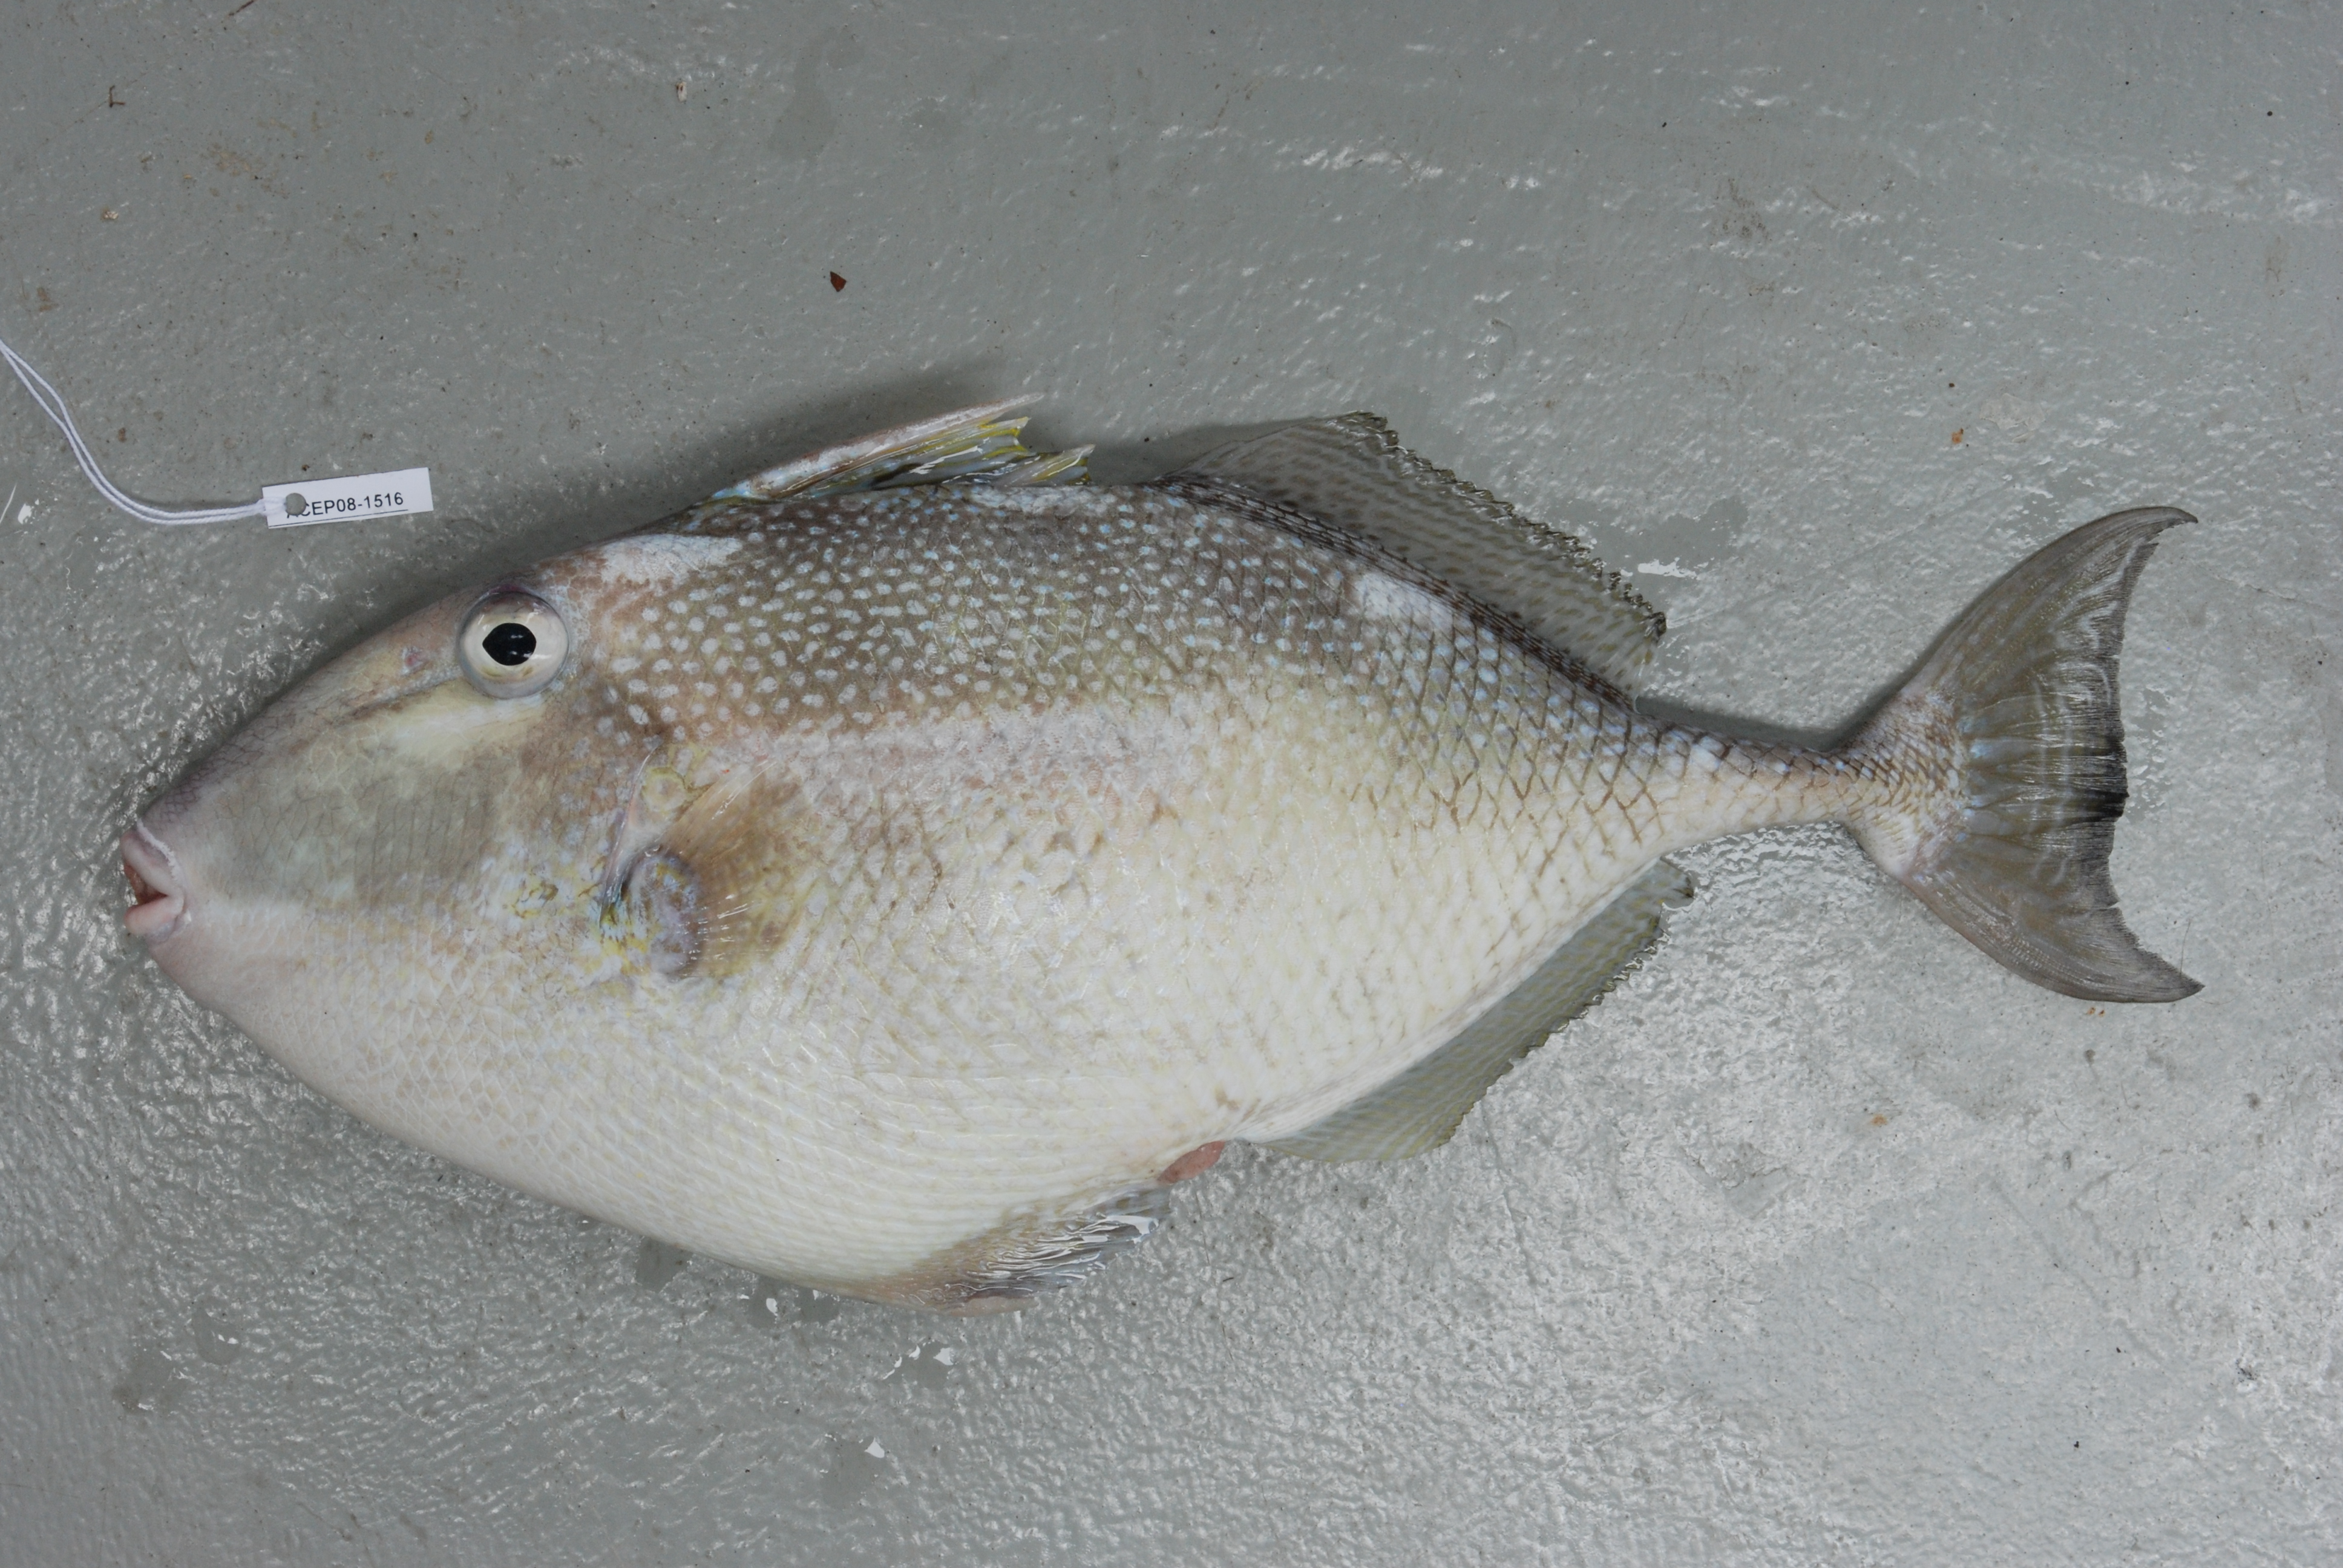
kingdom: Animalia
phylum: Chordata
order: Tetraodontiformes
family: Balistidae
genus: Abalistes
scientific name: Abalistes stellatus
